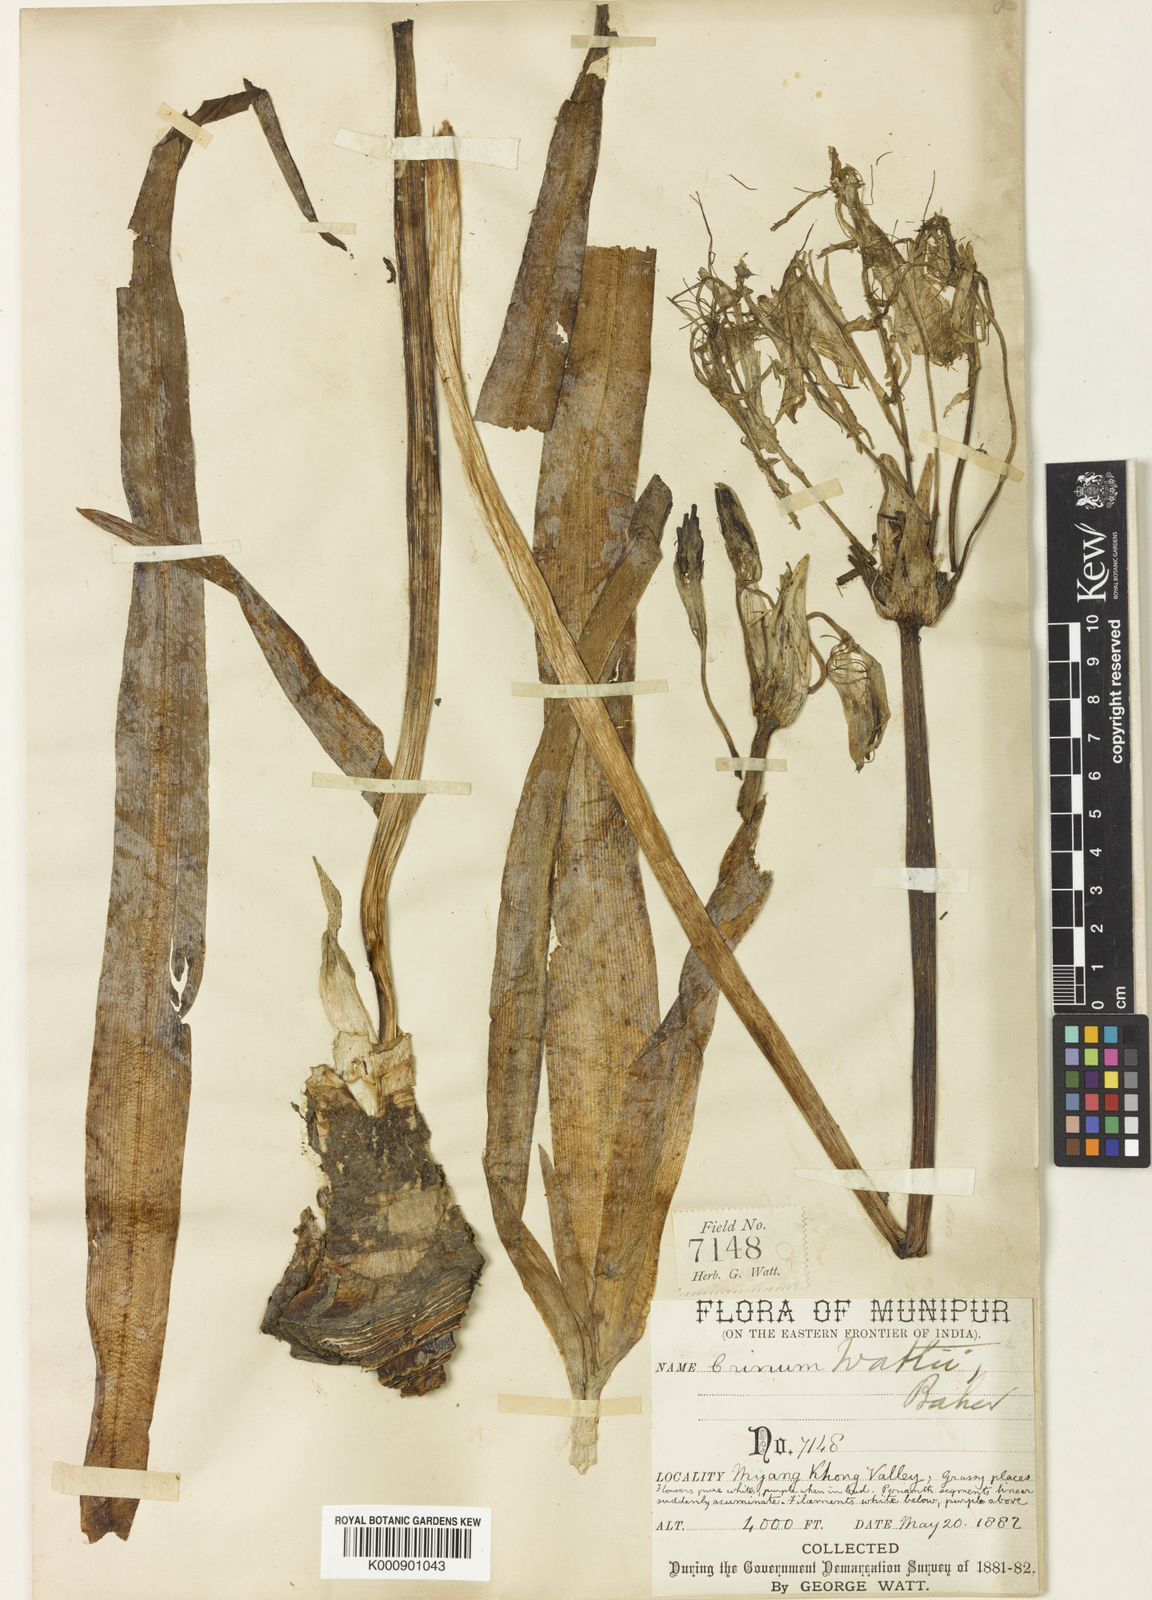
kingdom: Plantae
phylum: Tracheophyta
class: Liliopsida
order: Asparagales
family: Amaryllidaceae
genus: Crinum
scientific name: Crinum wattii
